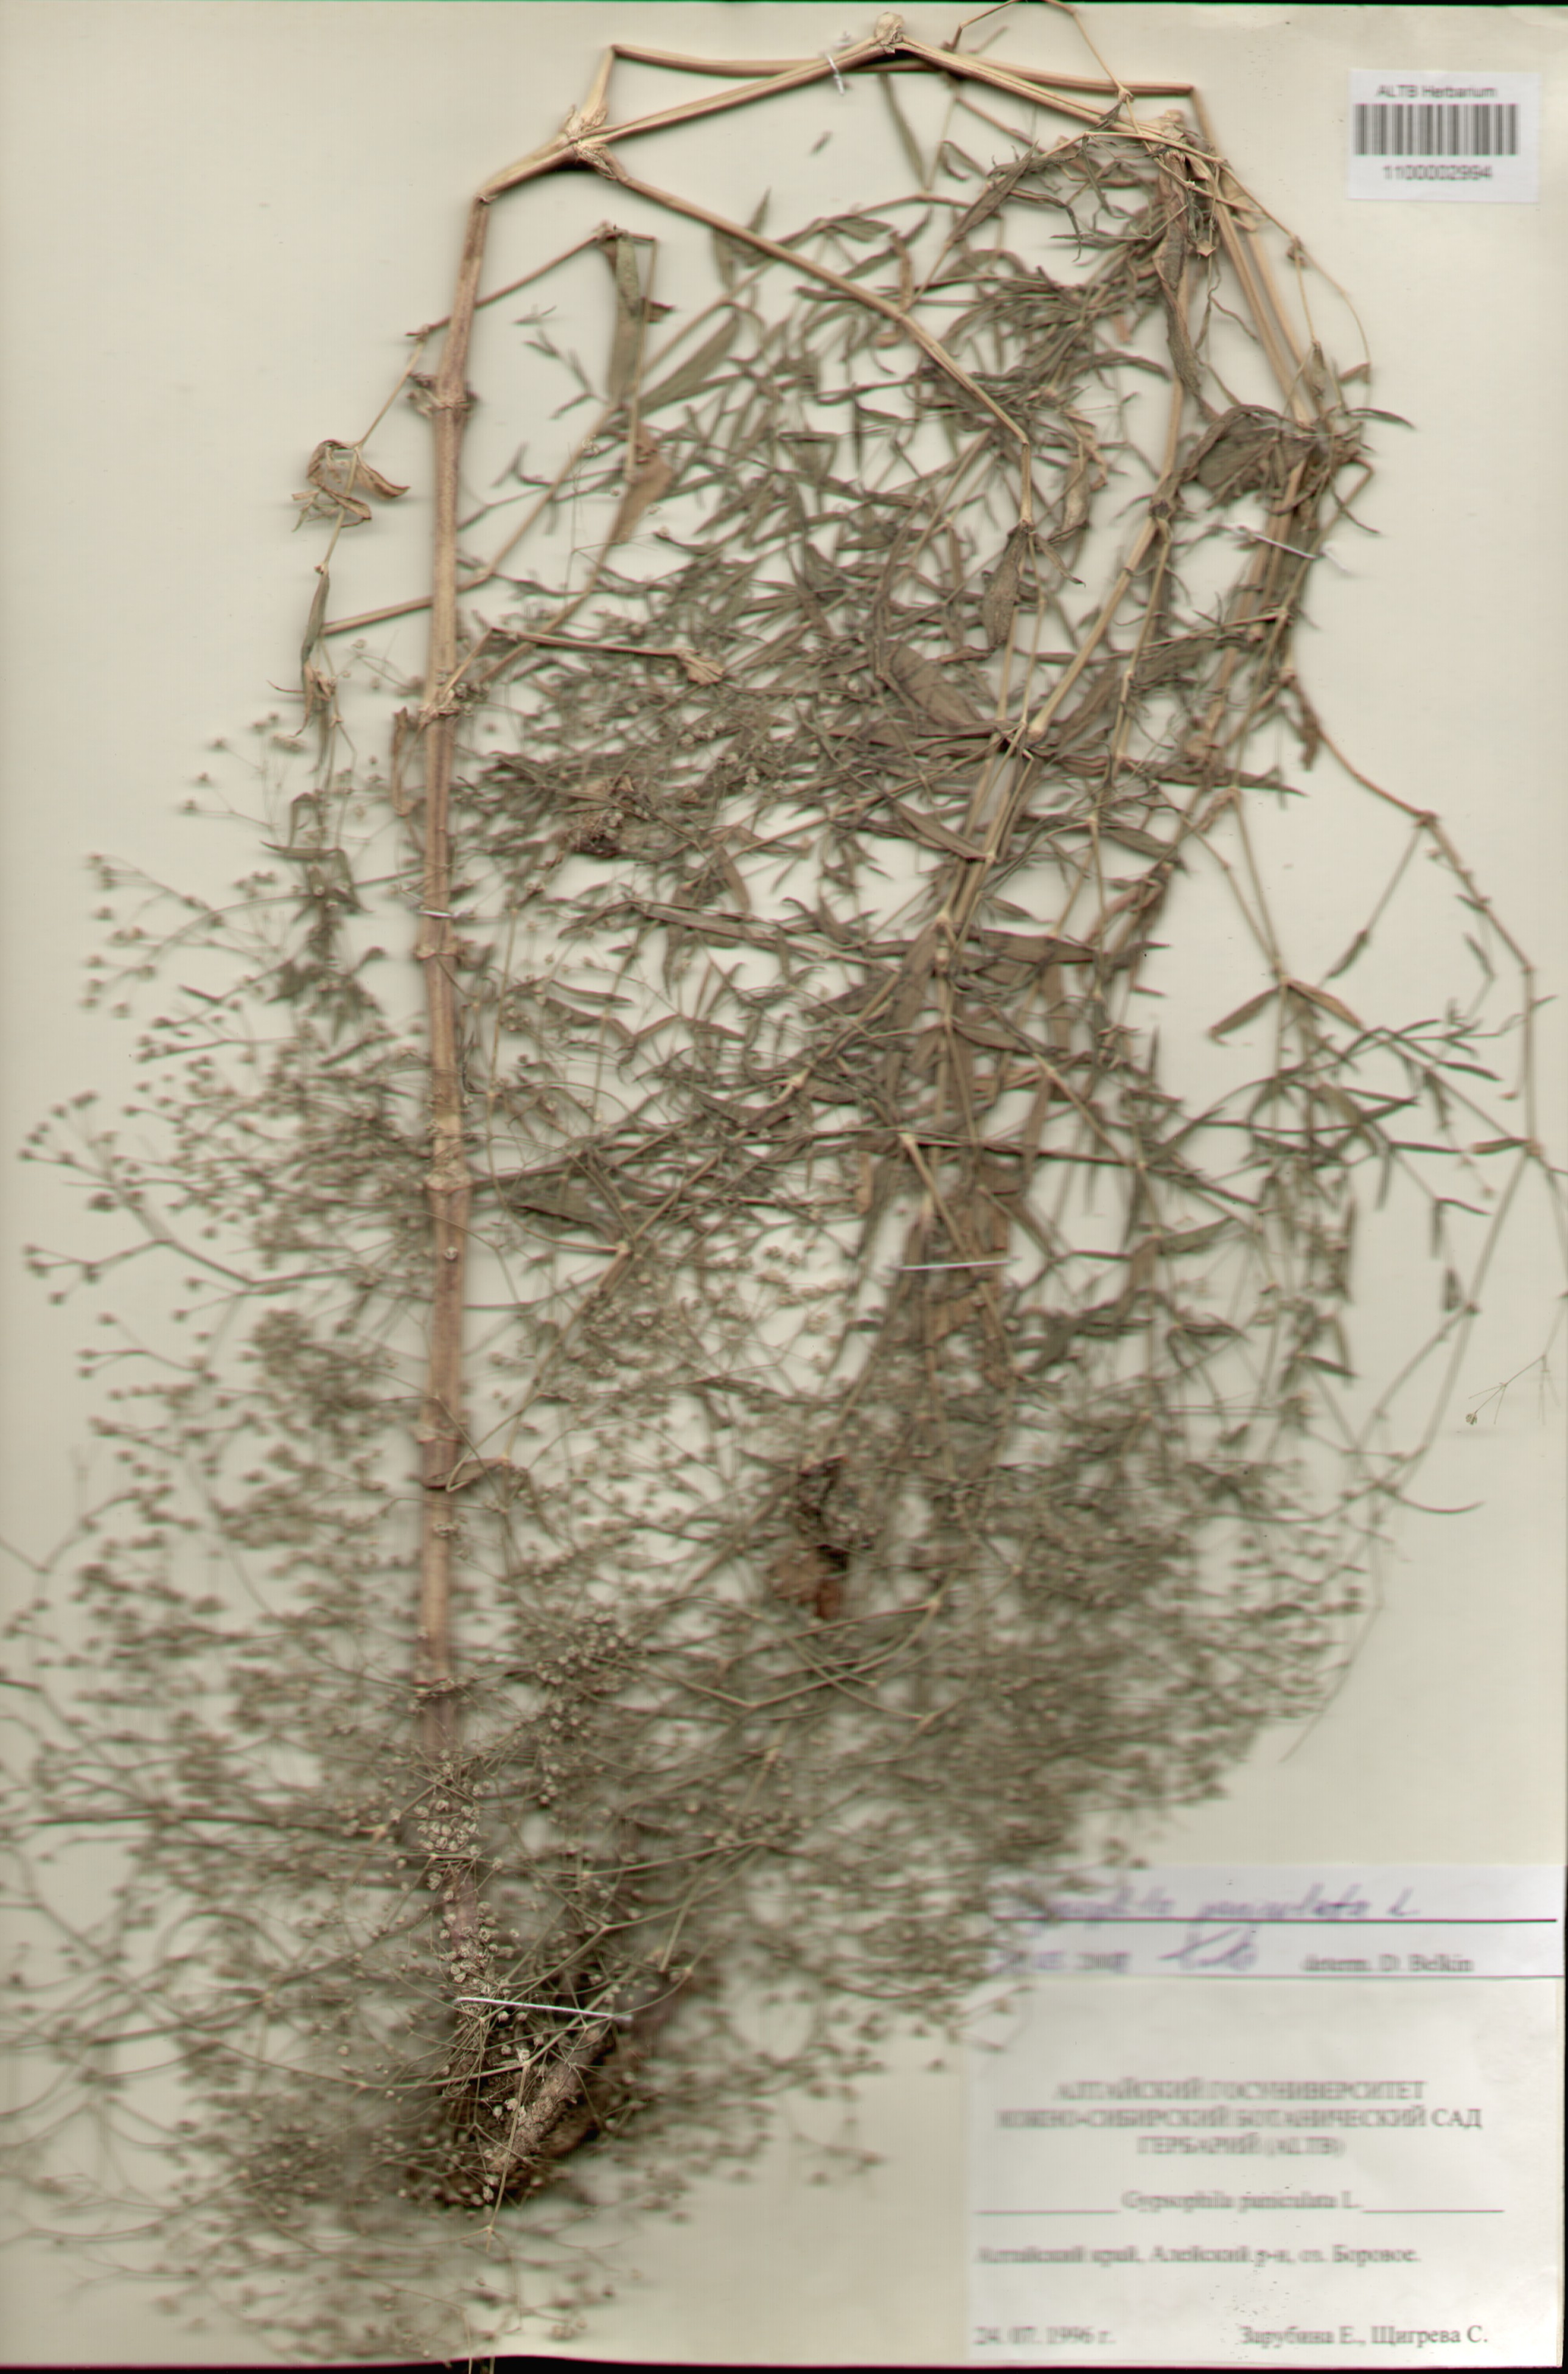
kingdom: Plantae
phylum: Tracheophyta
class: Magnoliopsida
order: Caryophyllales
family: Caryophyllaceae
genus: Gypsophila
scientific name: Gypsophila paniculata
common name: Baby's-breath
